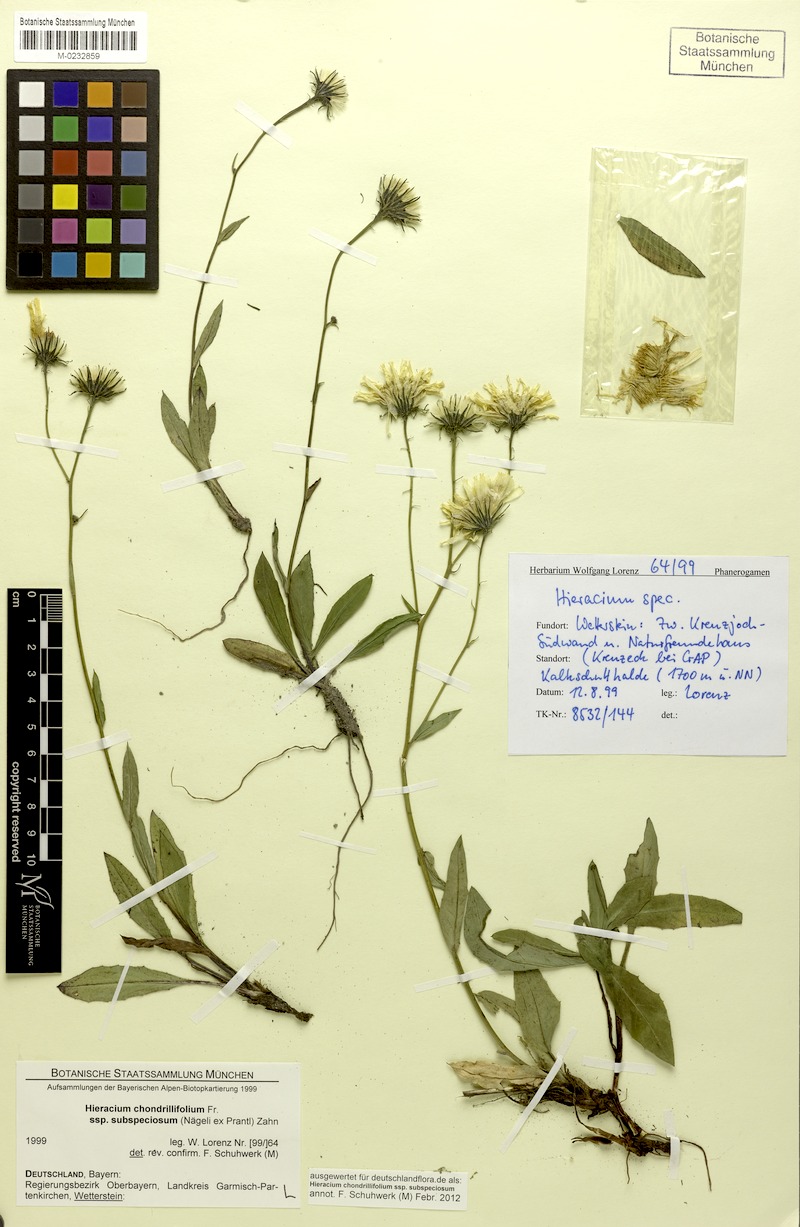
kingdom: Plantae
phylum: Tracheophyta
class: Magnoliopsida
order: Asterales
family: Asteraceae
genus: Hieracium
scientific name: Hieracium subspeciosum
